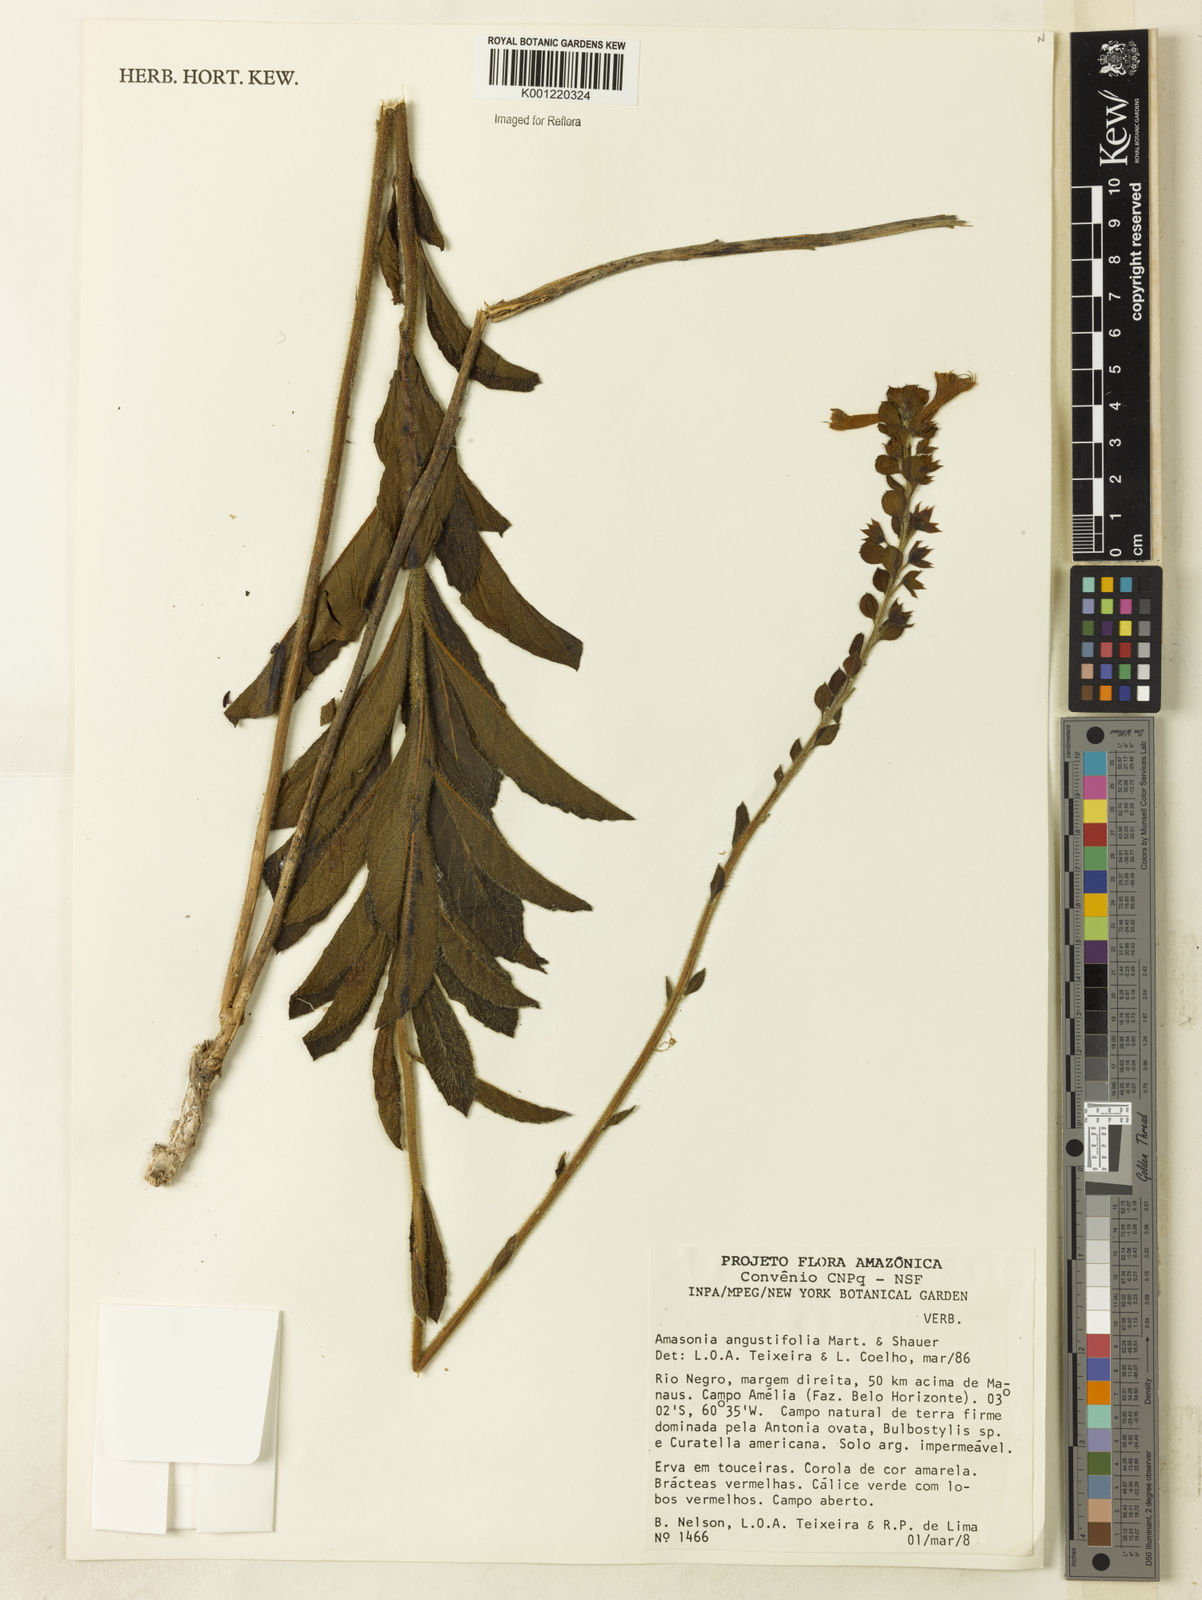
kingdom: Plantae
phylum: Tracheophyta
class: Magnoliopsida
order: Lamiales
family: Lamiaceae
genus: Amasonia
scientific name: Amasonia campestris
